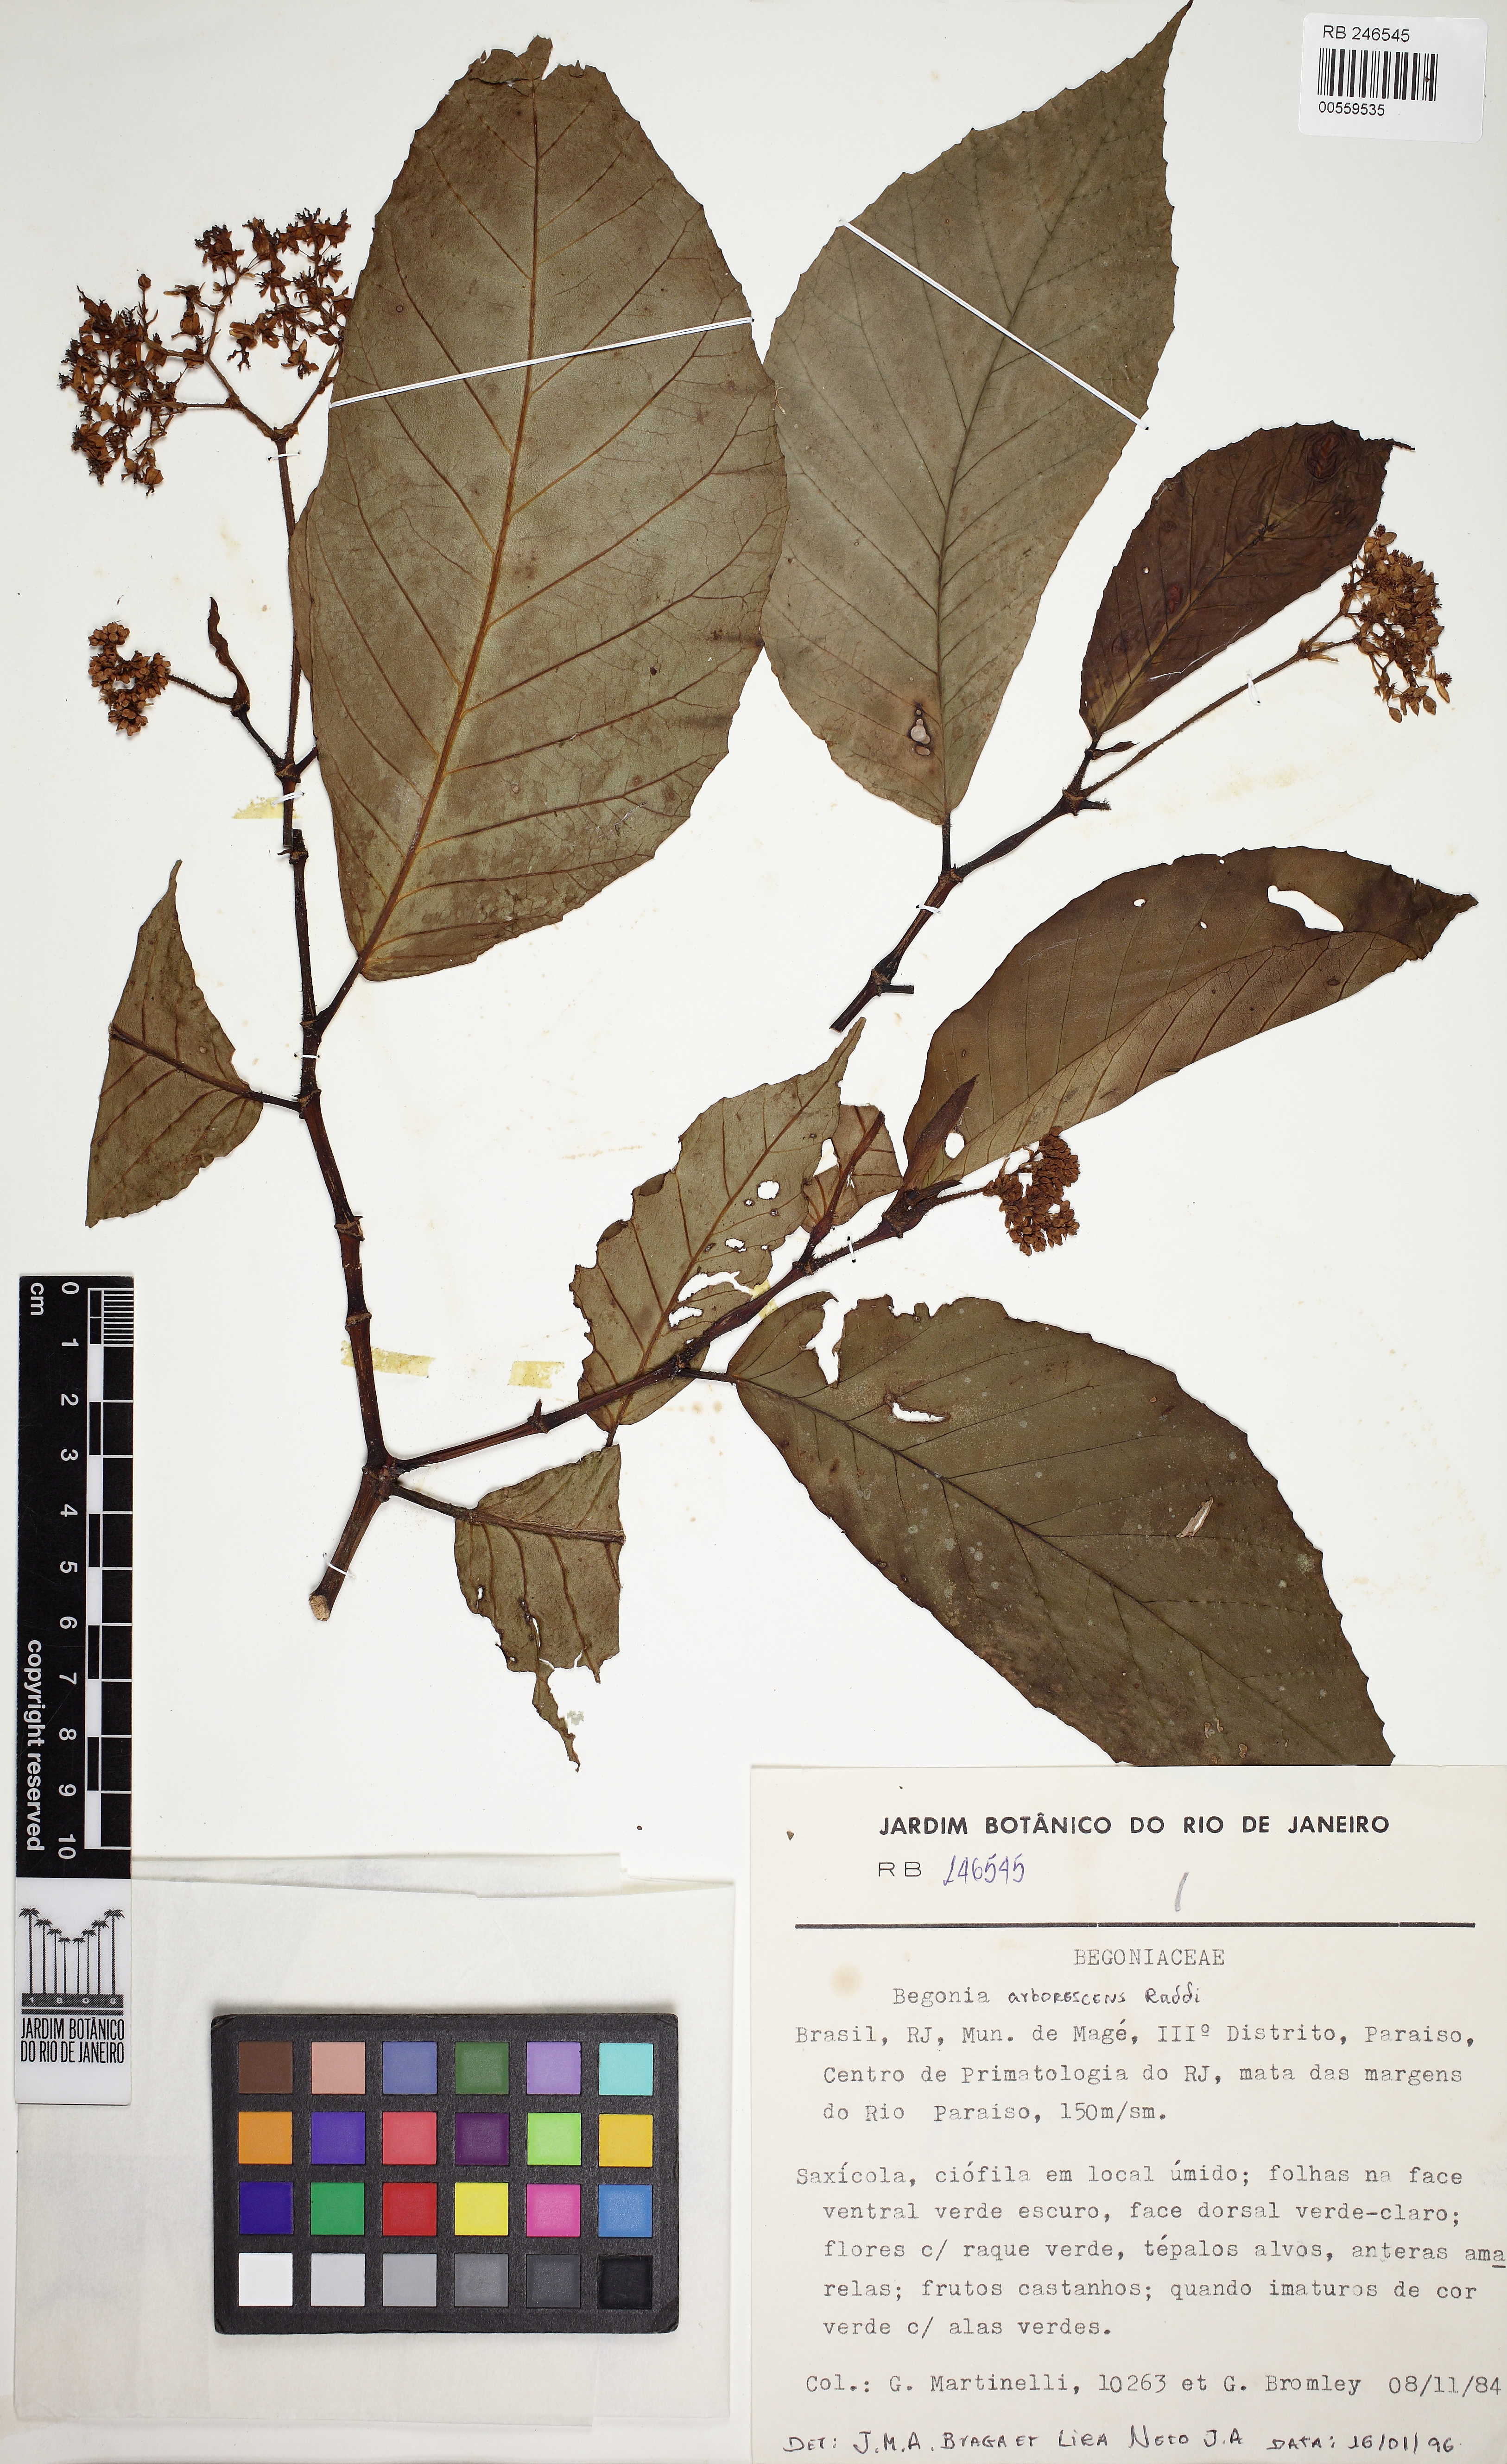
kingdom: Plantae
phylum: Tracheophyta
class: Magnoliopsida
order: Cucurbitales
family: Begoniaceae
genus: Begonia
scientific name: Begonia arborescens
